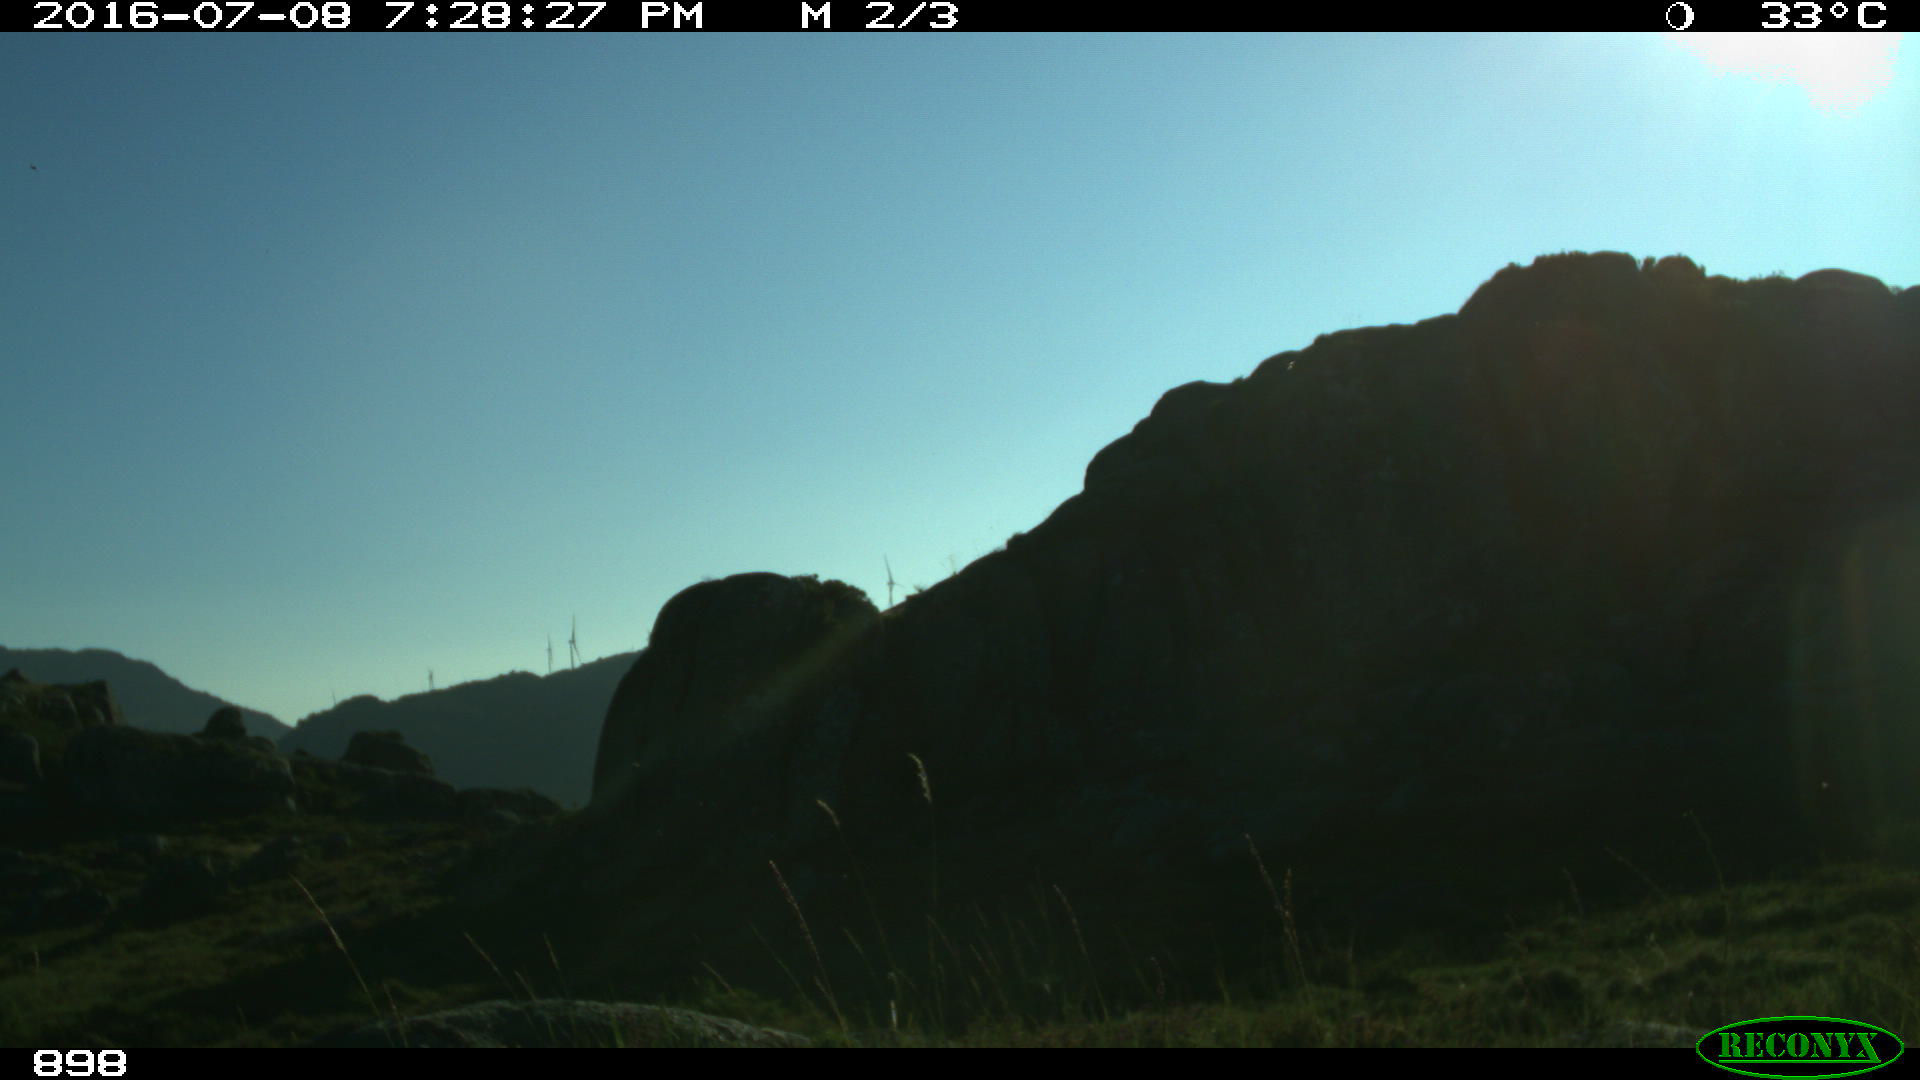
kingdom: Animalia
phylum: Chordata
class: Mammalia
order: Perissodactyla
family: Equidae
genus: Equus
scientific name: Equus caballus
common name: Horse
